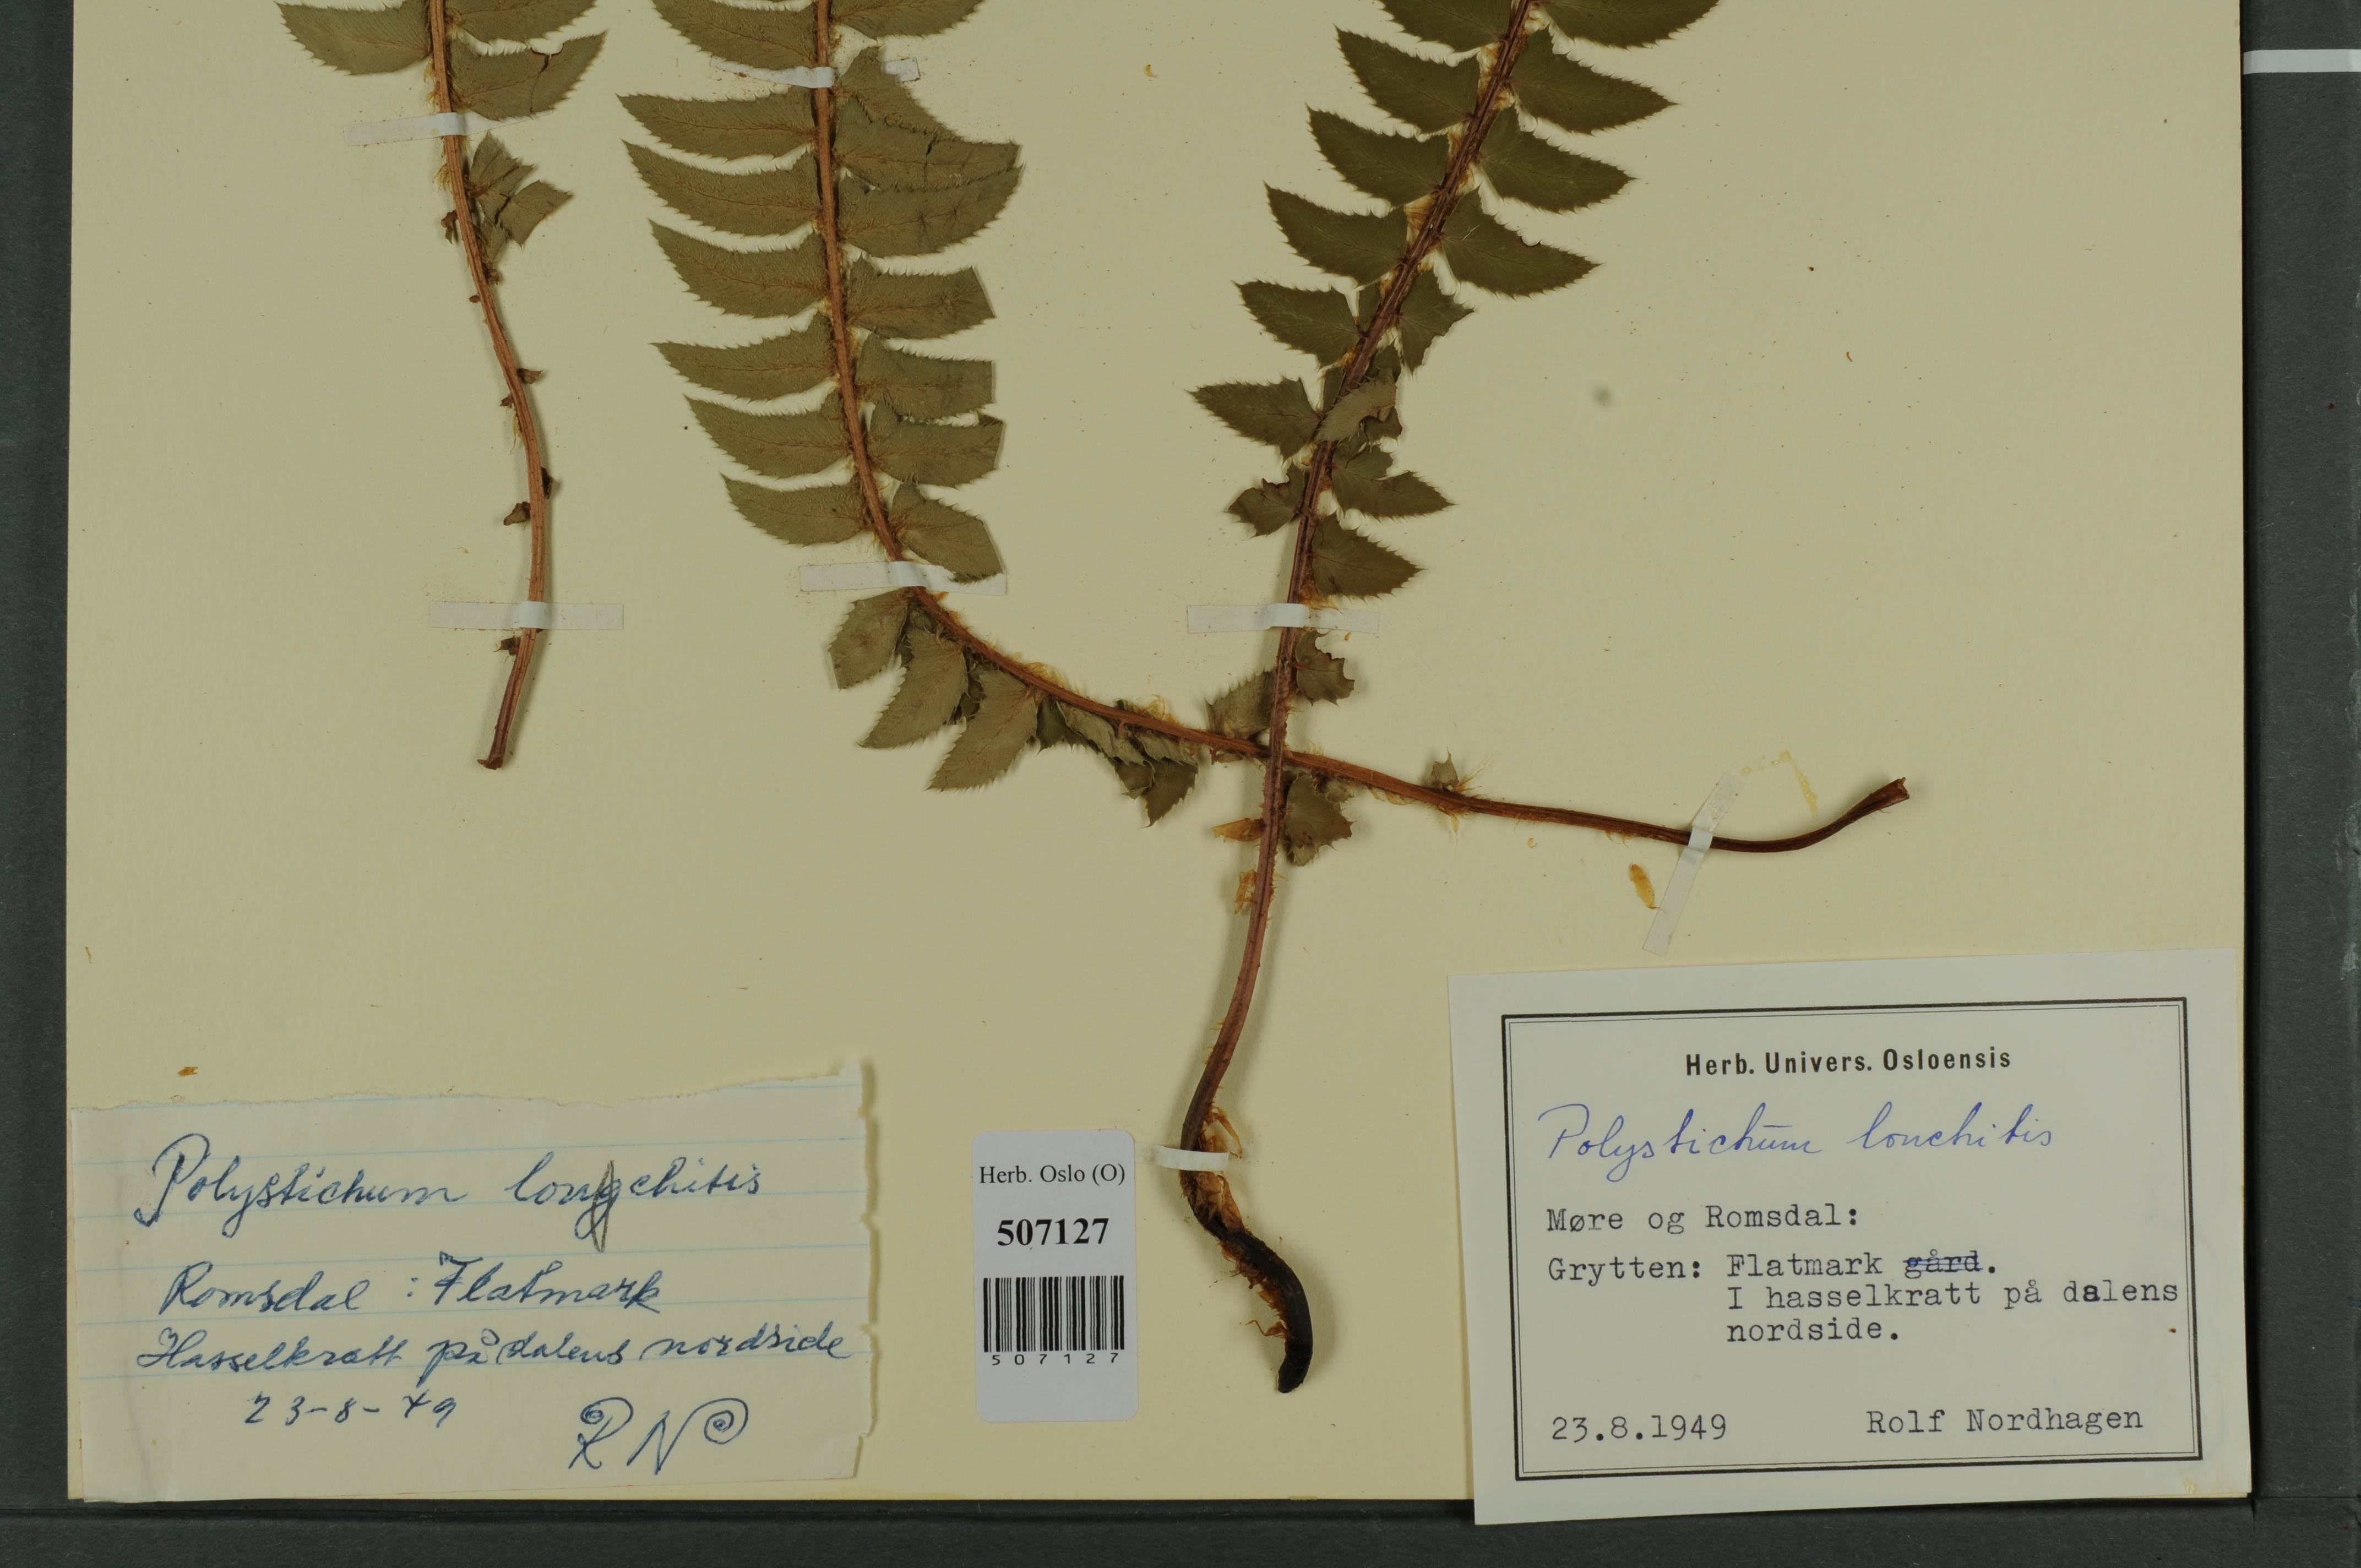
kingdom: Plantae
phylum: Tracheophyta
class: Polypodiopsida
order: Polypodiales
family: Dryopteridaceae
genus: Polystichum
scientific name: Polystichum lonchitis
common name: Holly fern
